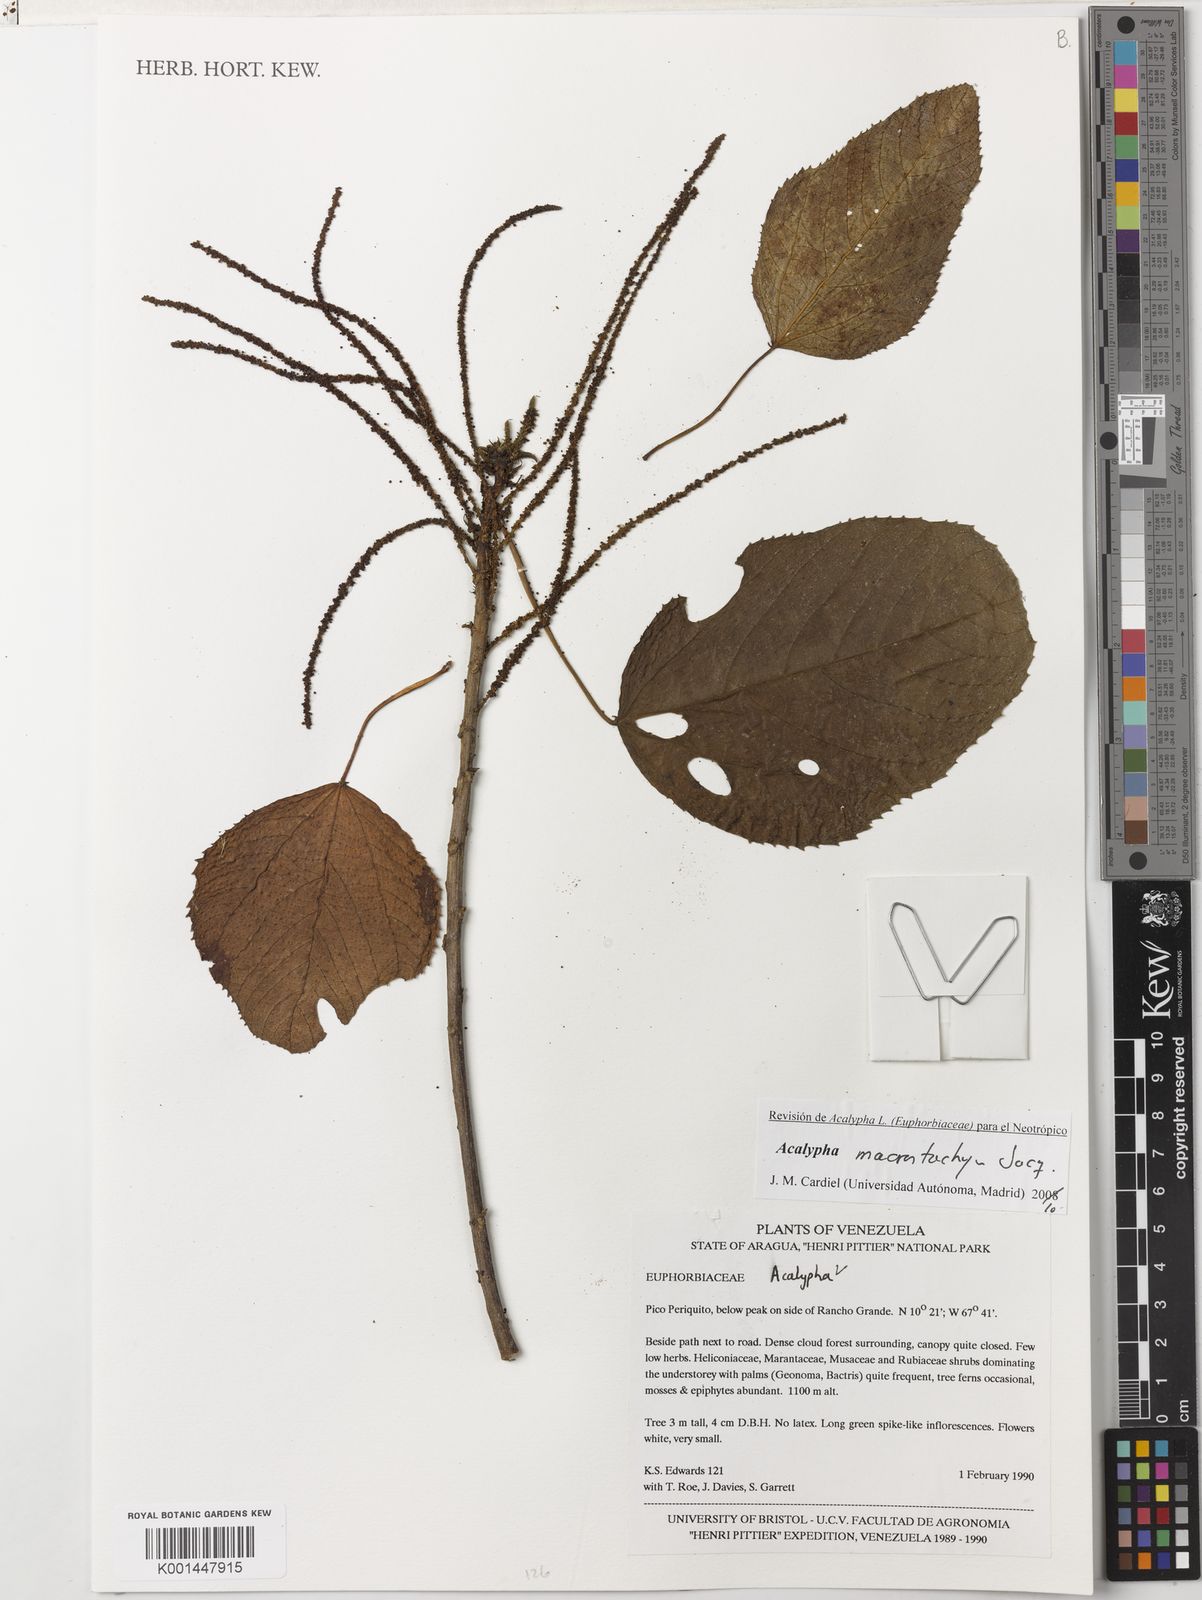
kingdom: Plantae
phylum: Tracheophyta
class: Magnoliopsida
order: Malpighiales
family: Euphorbiaceae
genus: Acalypha
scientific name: Acalypha macrostachya
